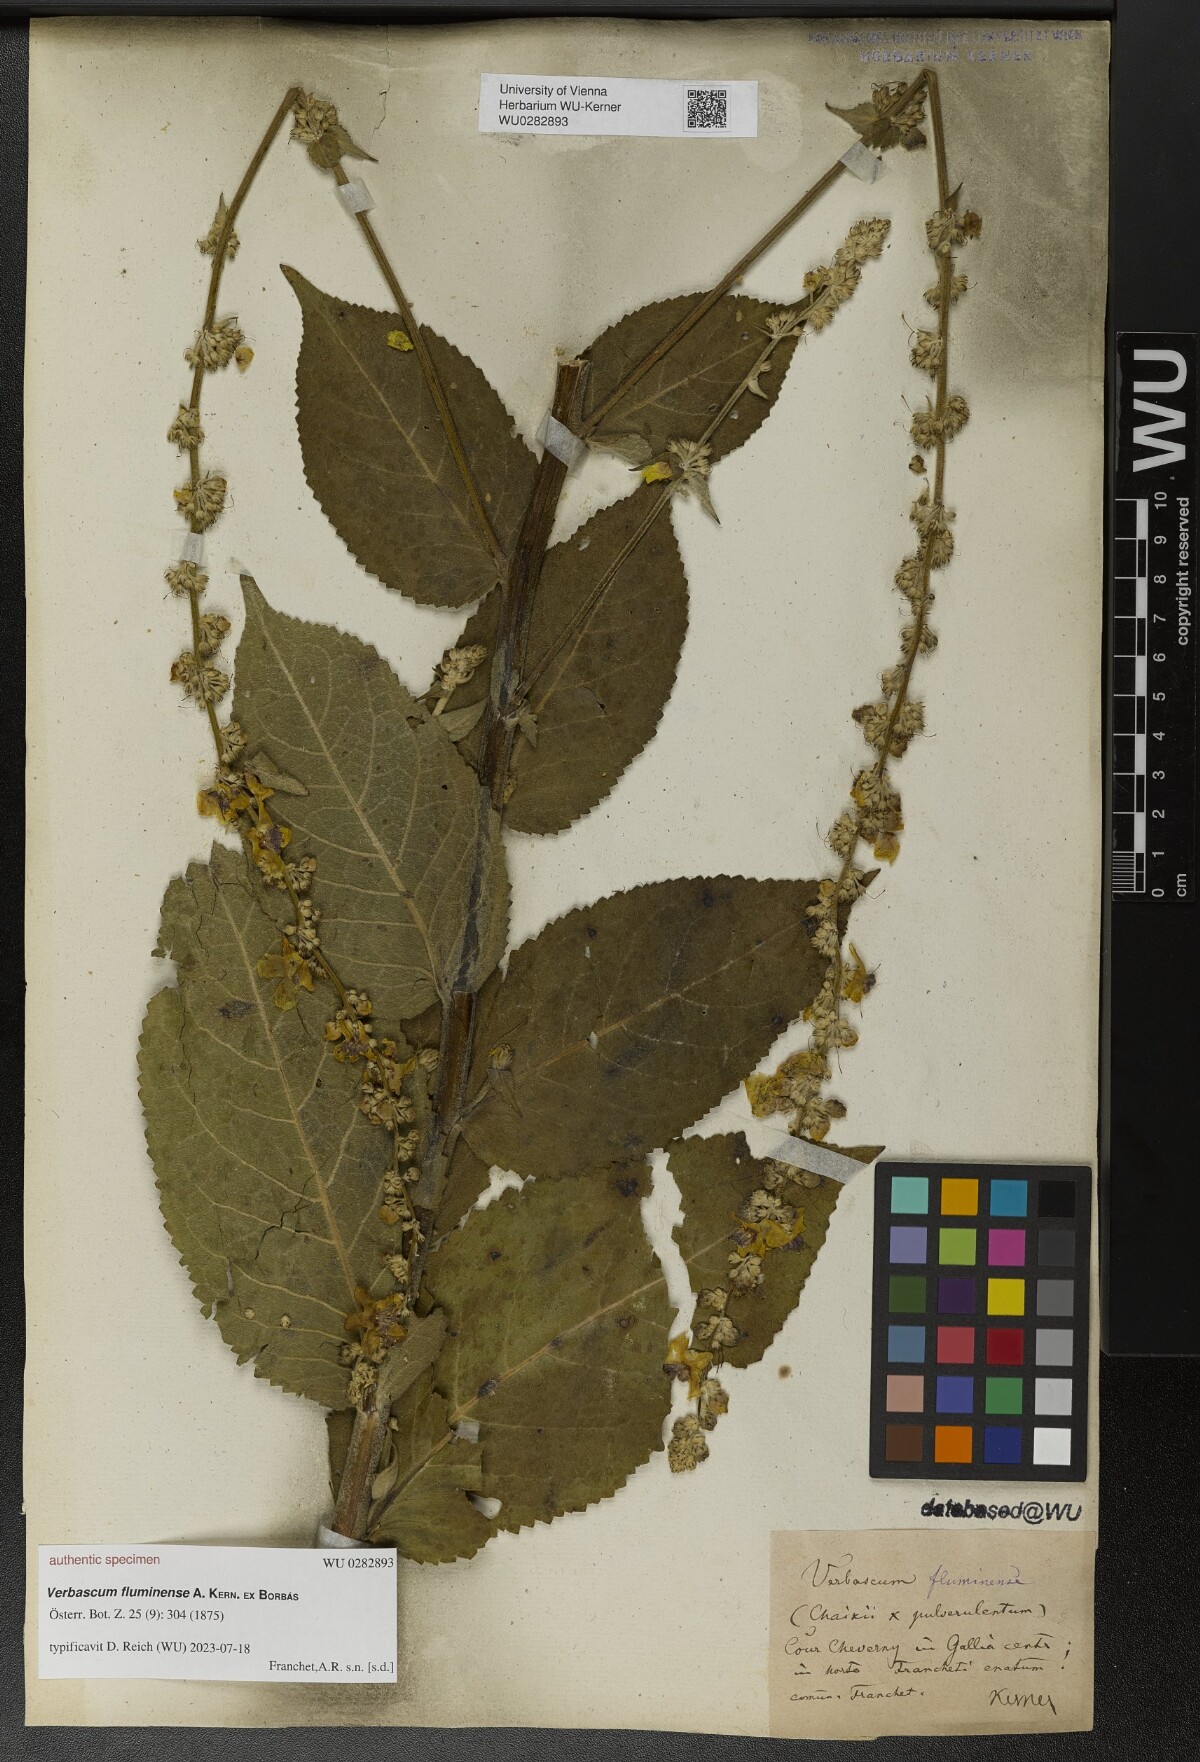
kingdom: Plantae
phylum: Tracheophyta
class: Magnoliopsida
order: Lamiales
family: Scrophulariaceae
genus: Verbascum
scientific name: Verbascum fluminense
